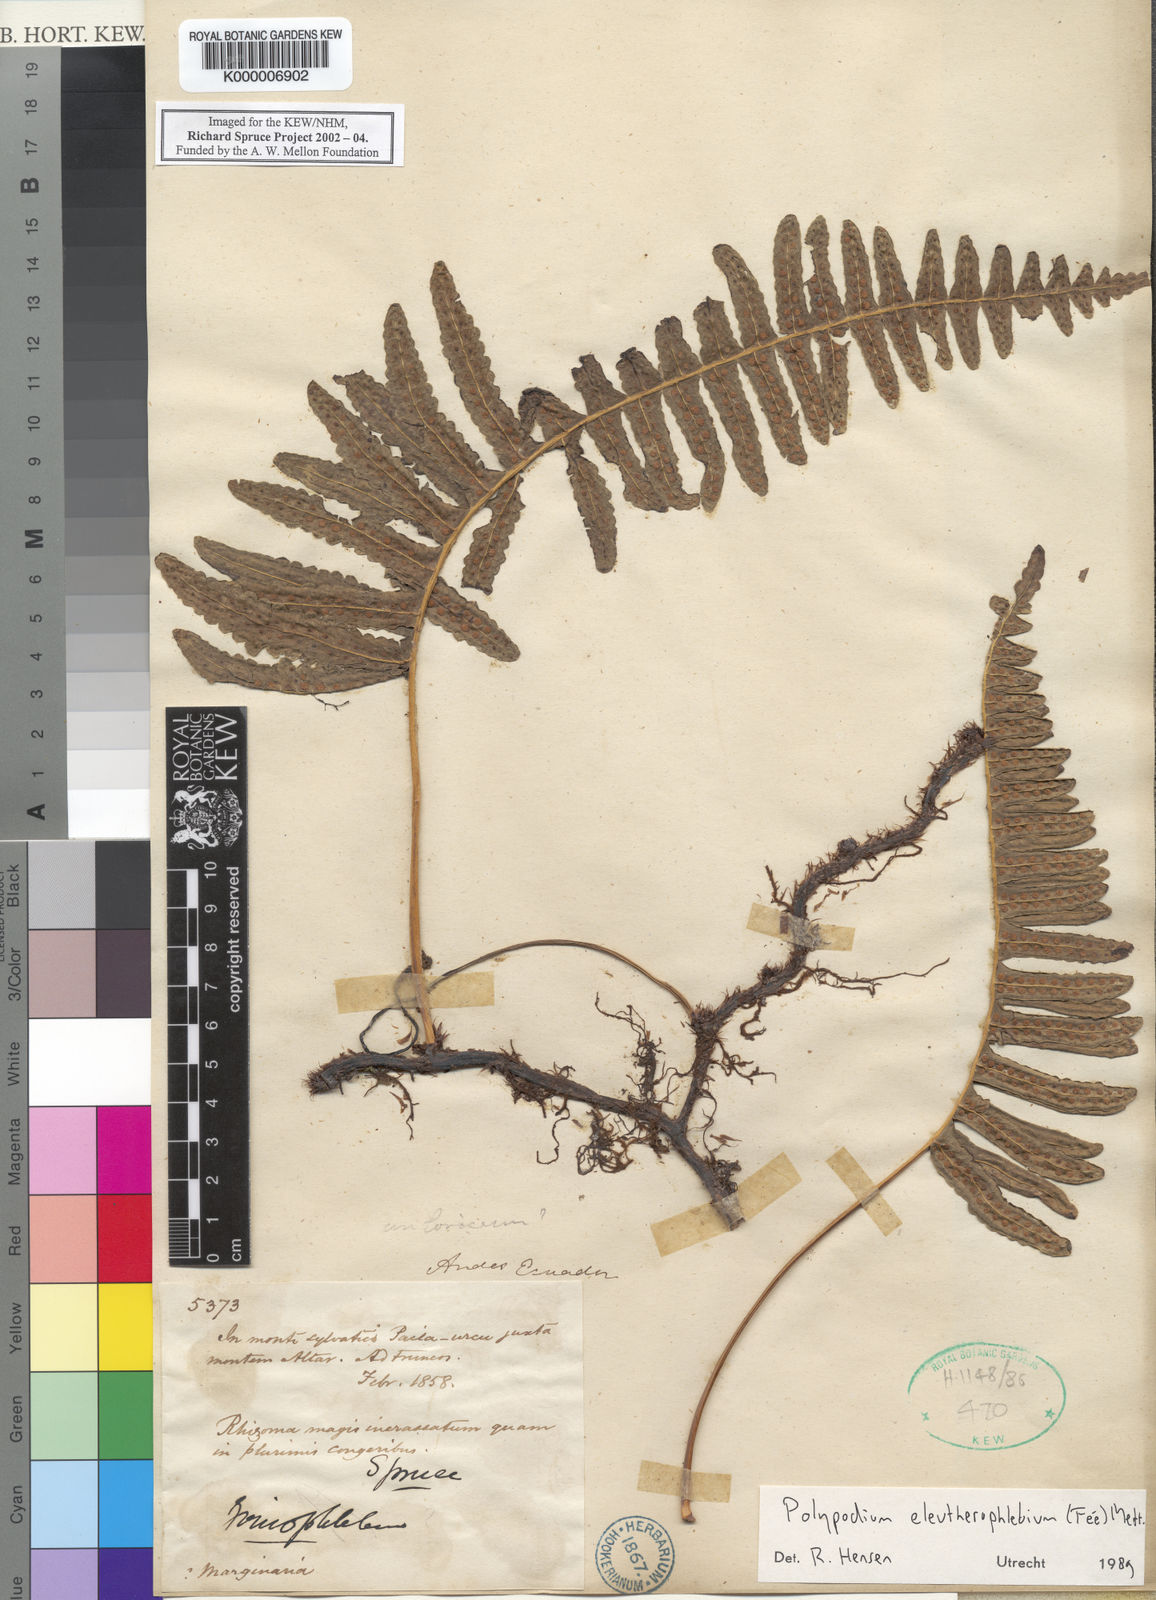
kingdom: Plantae
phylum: Tracheophyta
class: Polypodiopsida
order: Polypodiales
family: Polypodiaceae
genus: Polypodium
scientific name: Polypodium
